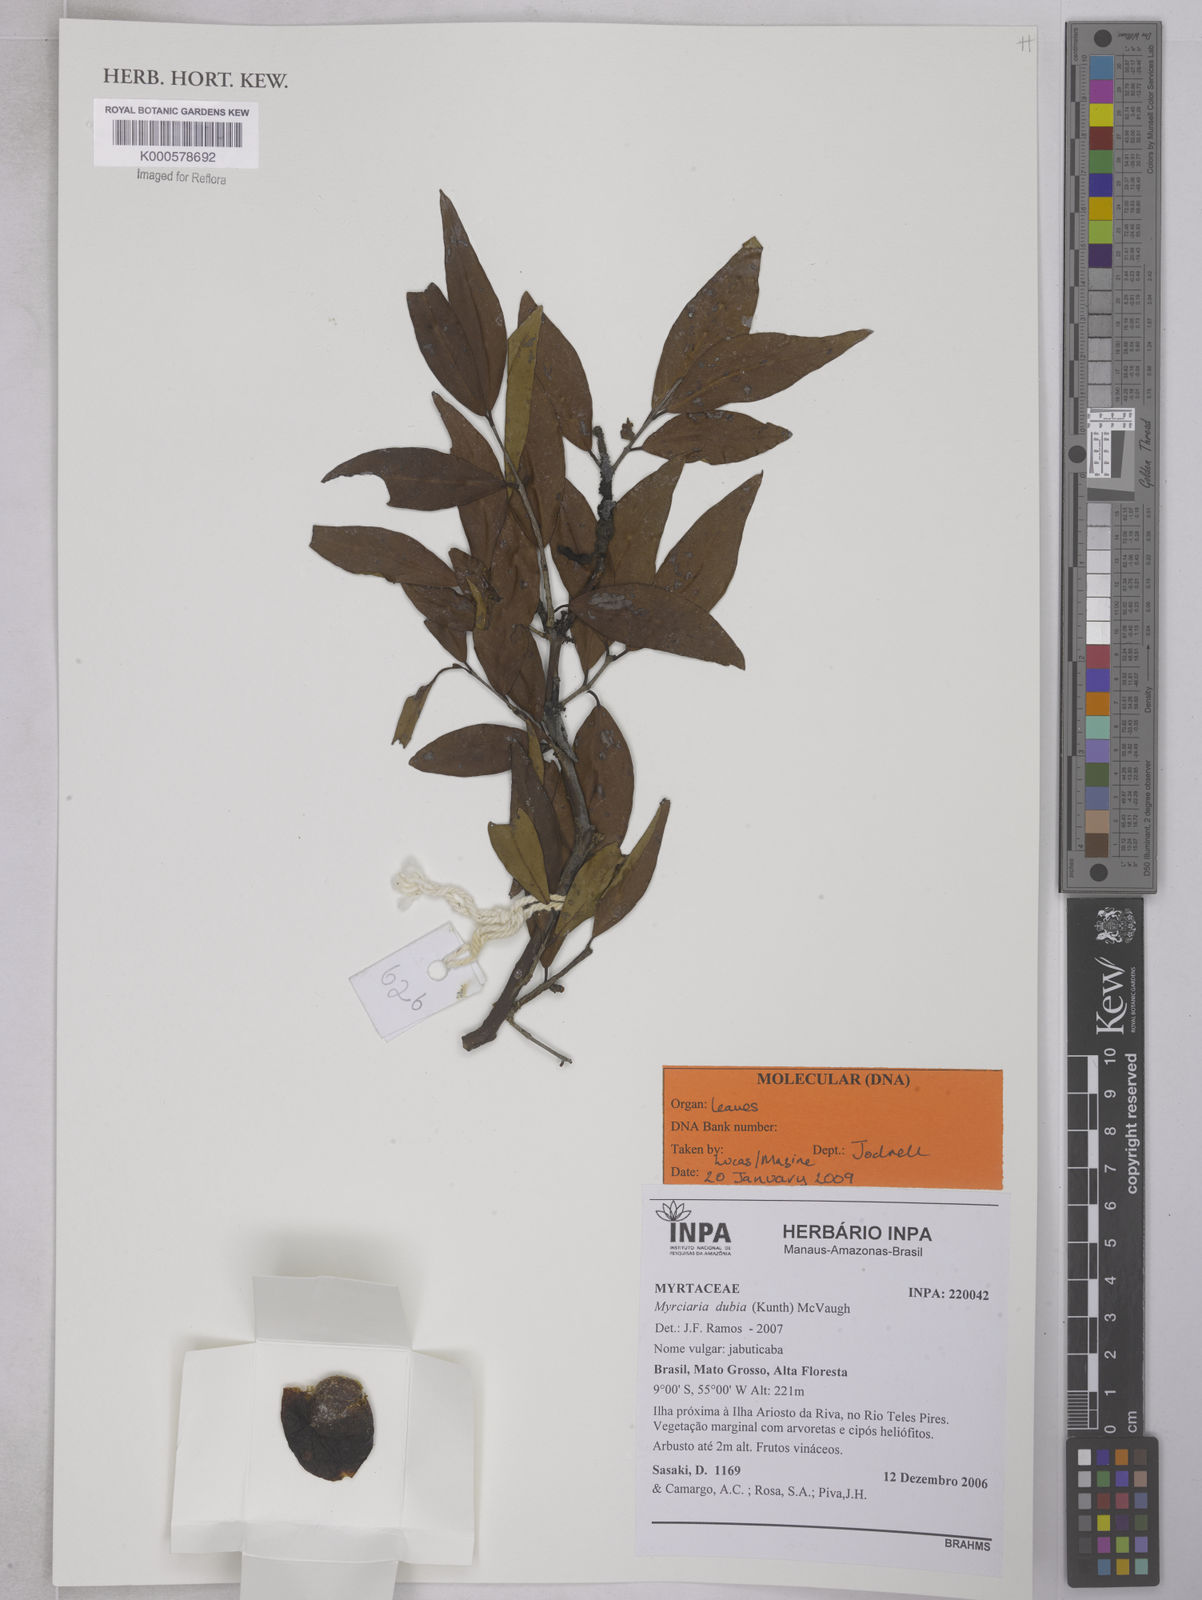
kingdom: Plantae
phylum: Tracheophyta
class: Magnoliopsida
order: Myrtales
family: Myrtaceae
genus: Myrciaria
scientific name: Myrciaria dubia
